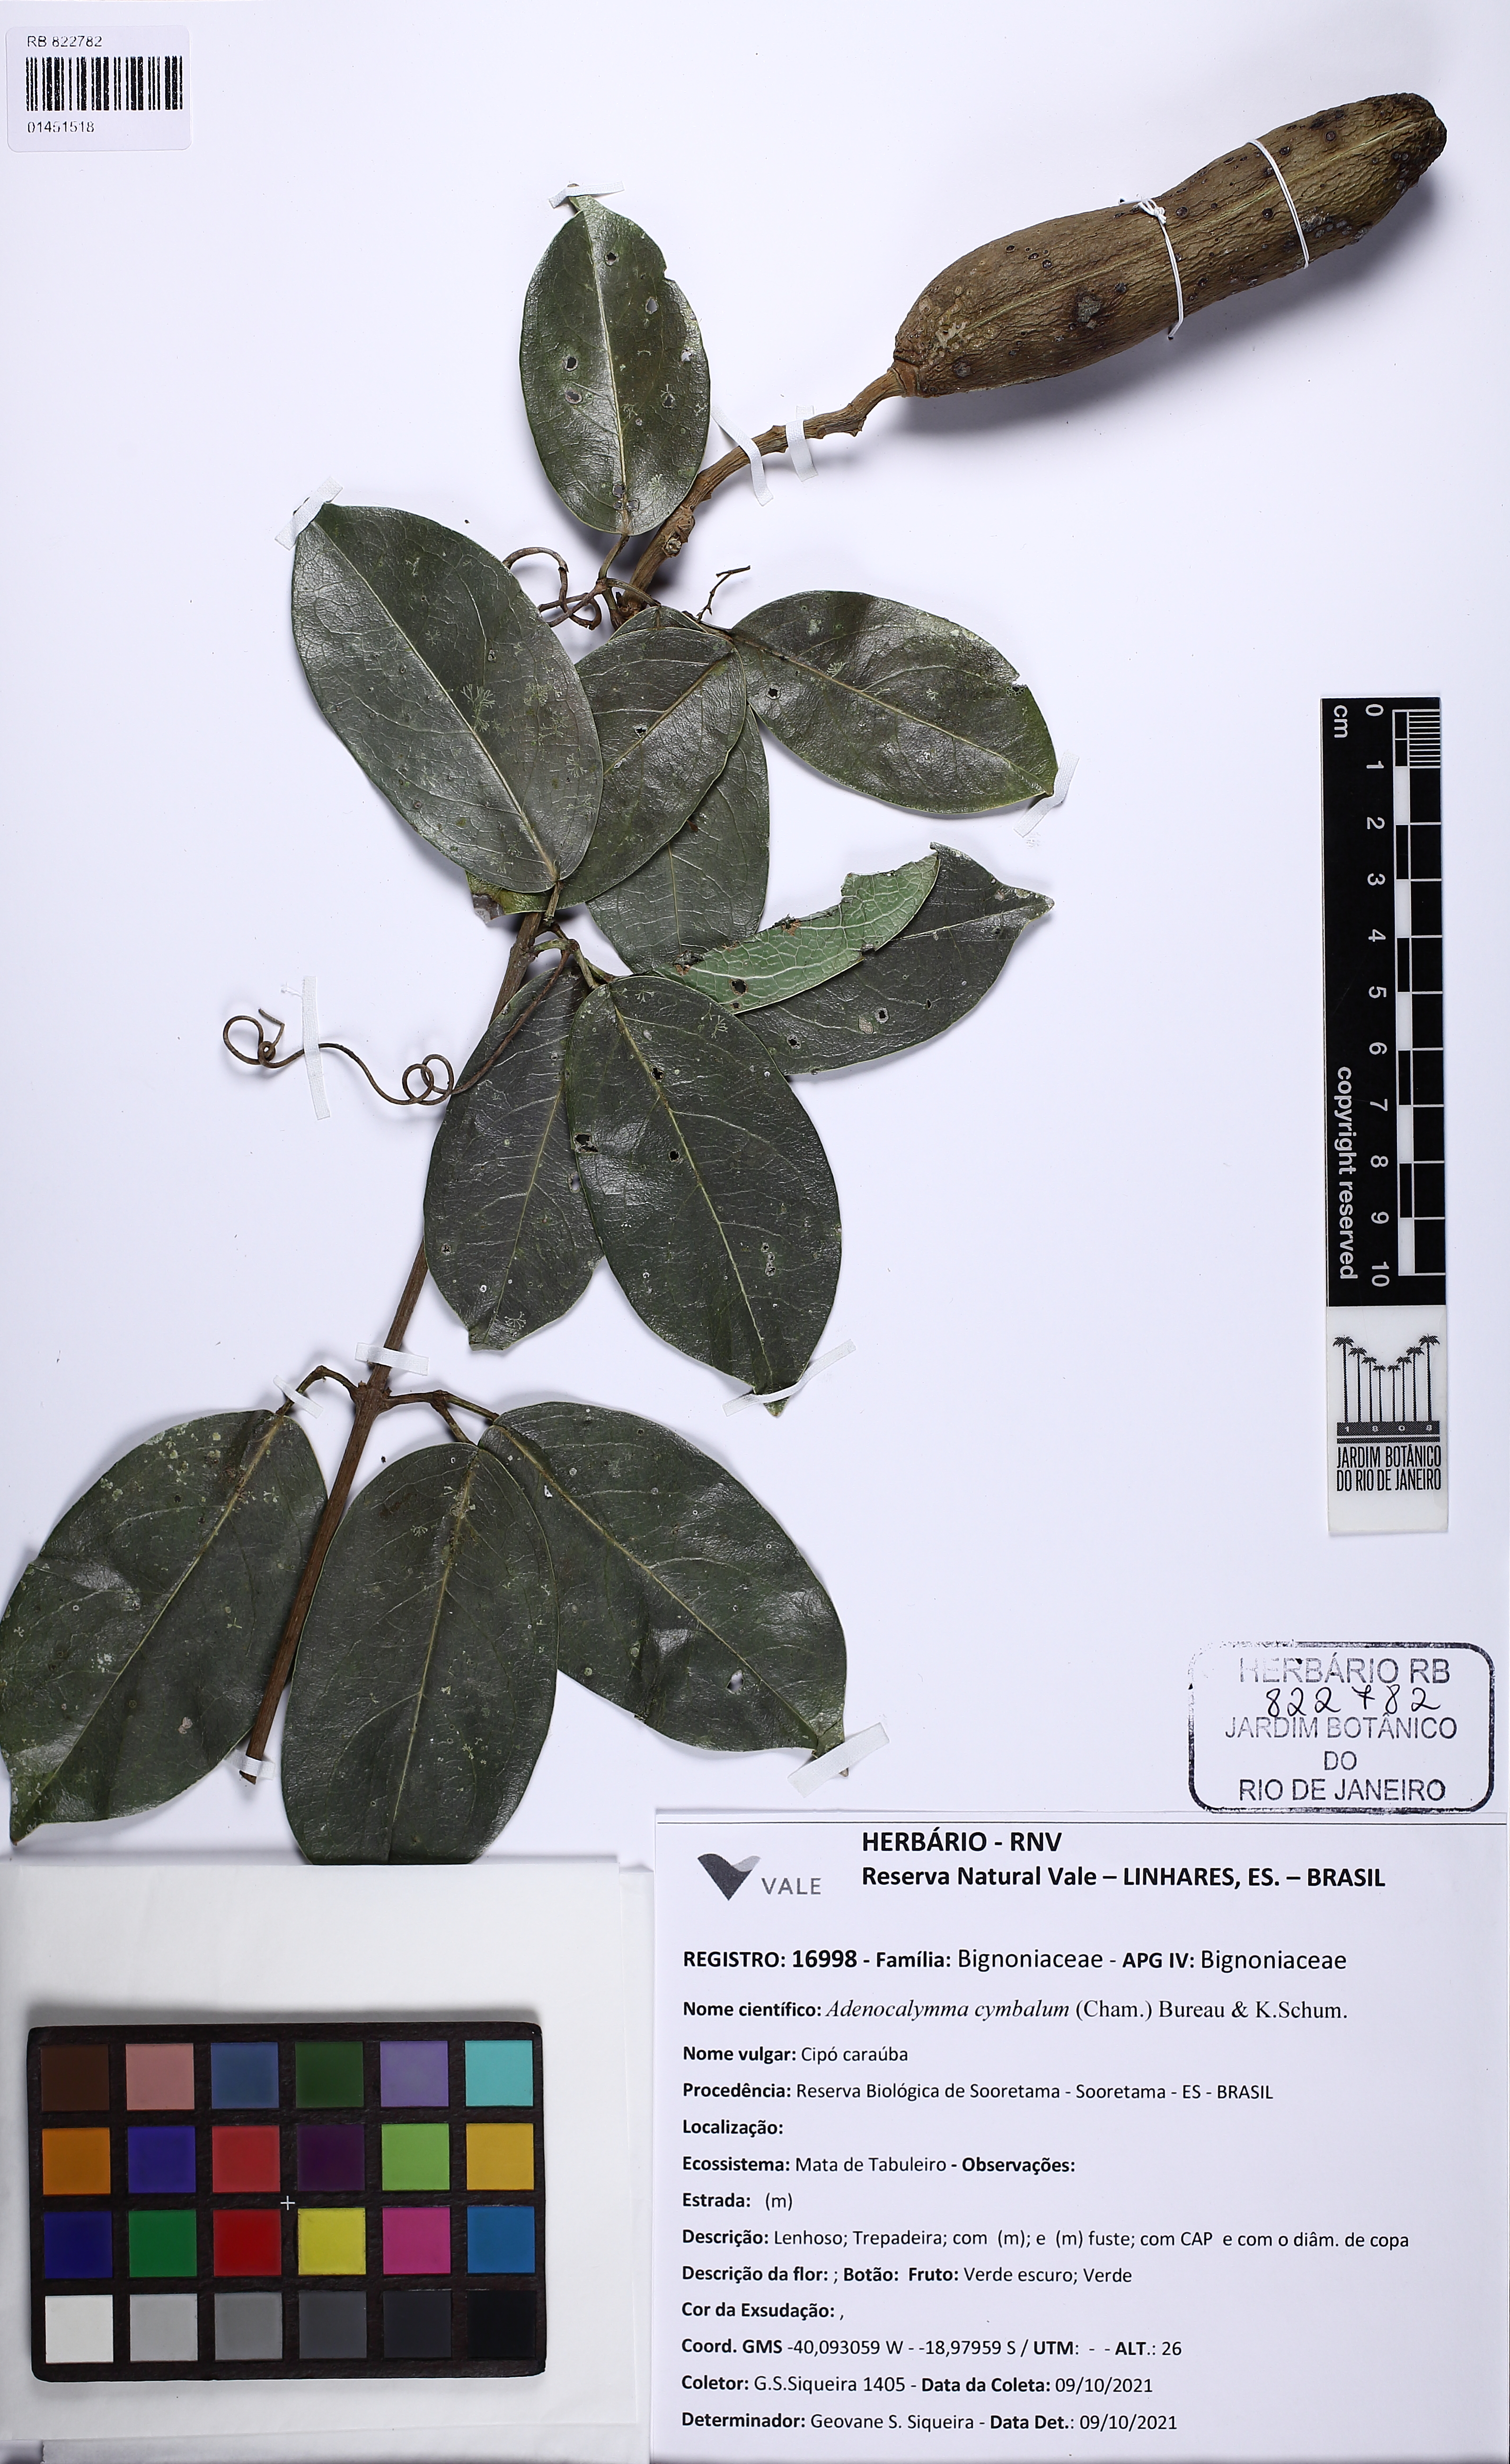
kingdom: Plantae
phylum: Tracheophyta
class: Magnoliopsida
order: Lamiales
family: Bignoniaceae
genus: Adenocalymma
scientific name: Adenocalymma cymbalum
